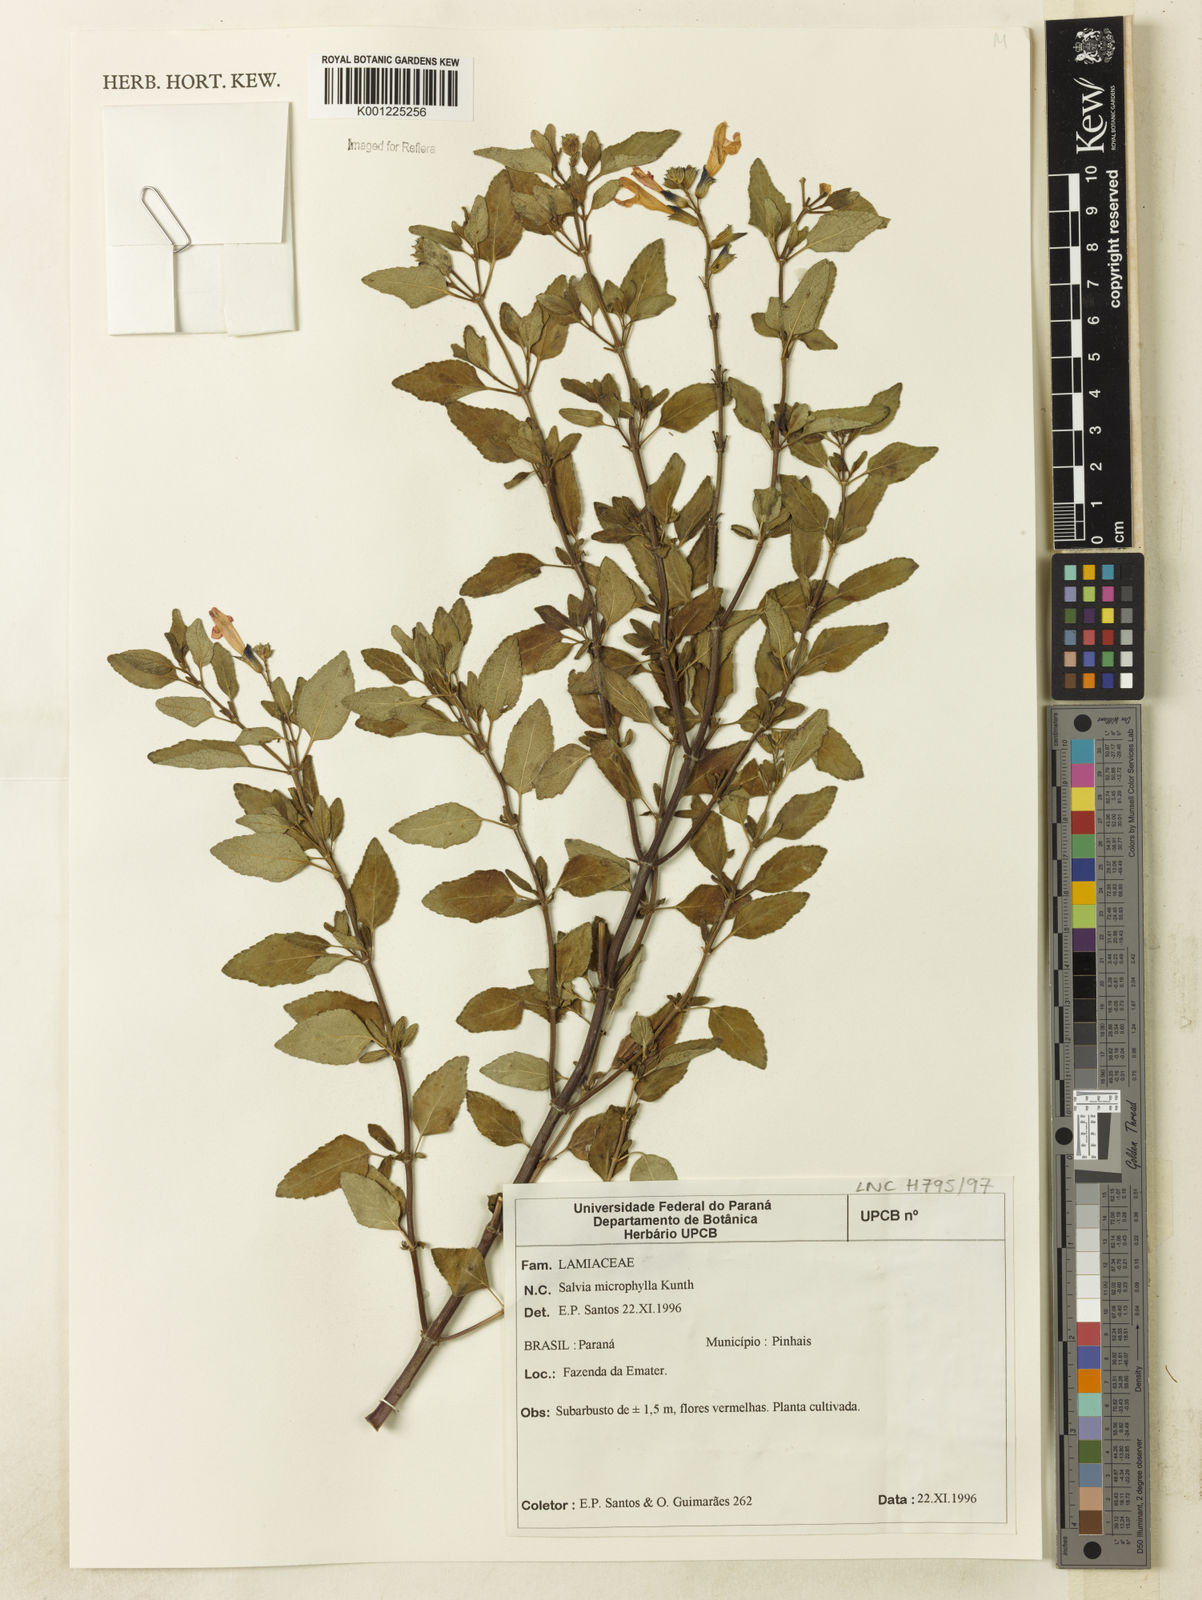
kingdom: Plantae
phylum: Tracheophyta
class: Magnoliopsida
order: Lamiales
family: Lamiaceae
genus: Salvia
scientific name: Salvia microphylla
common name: Baby sage
